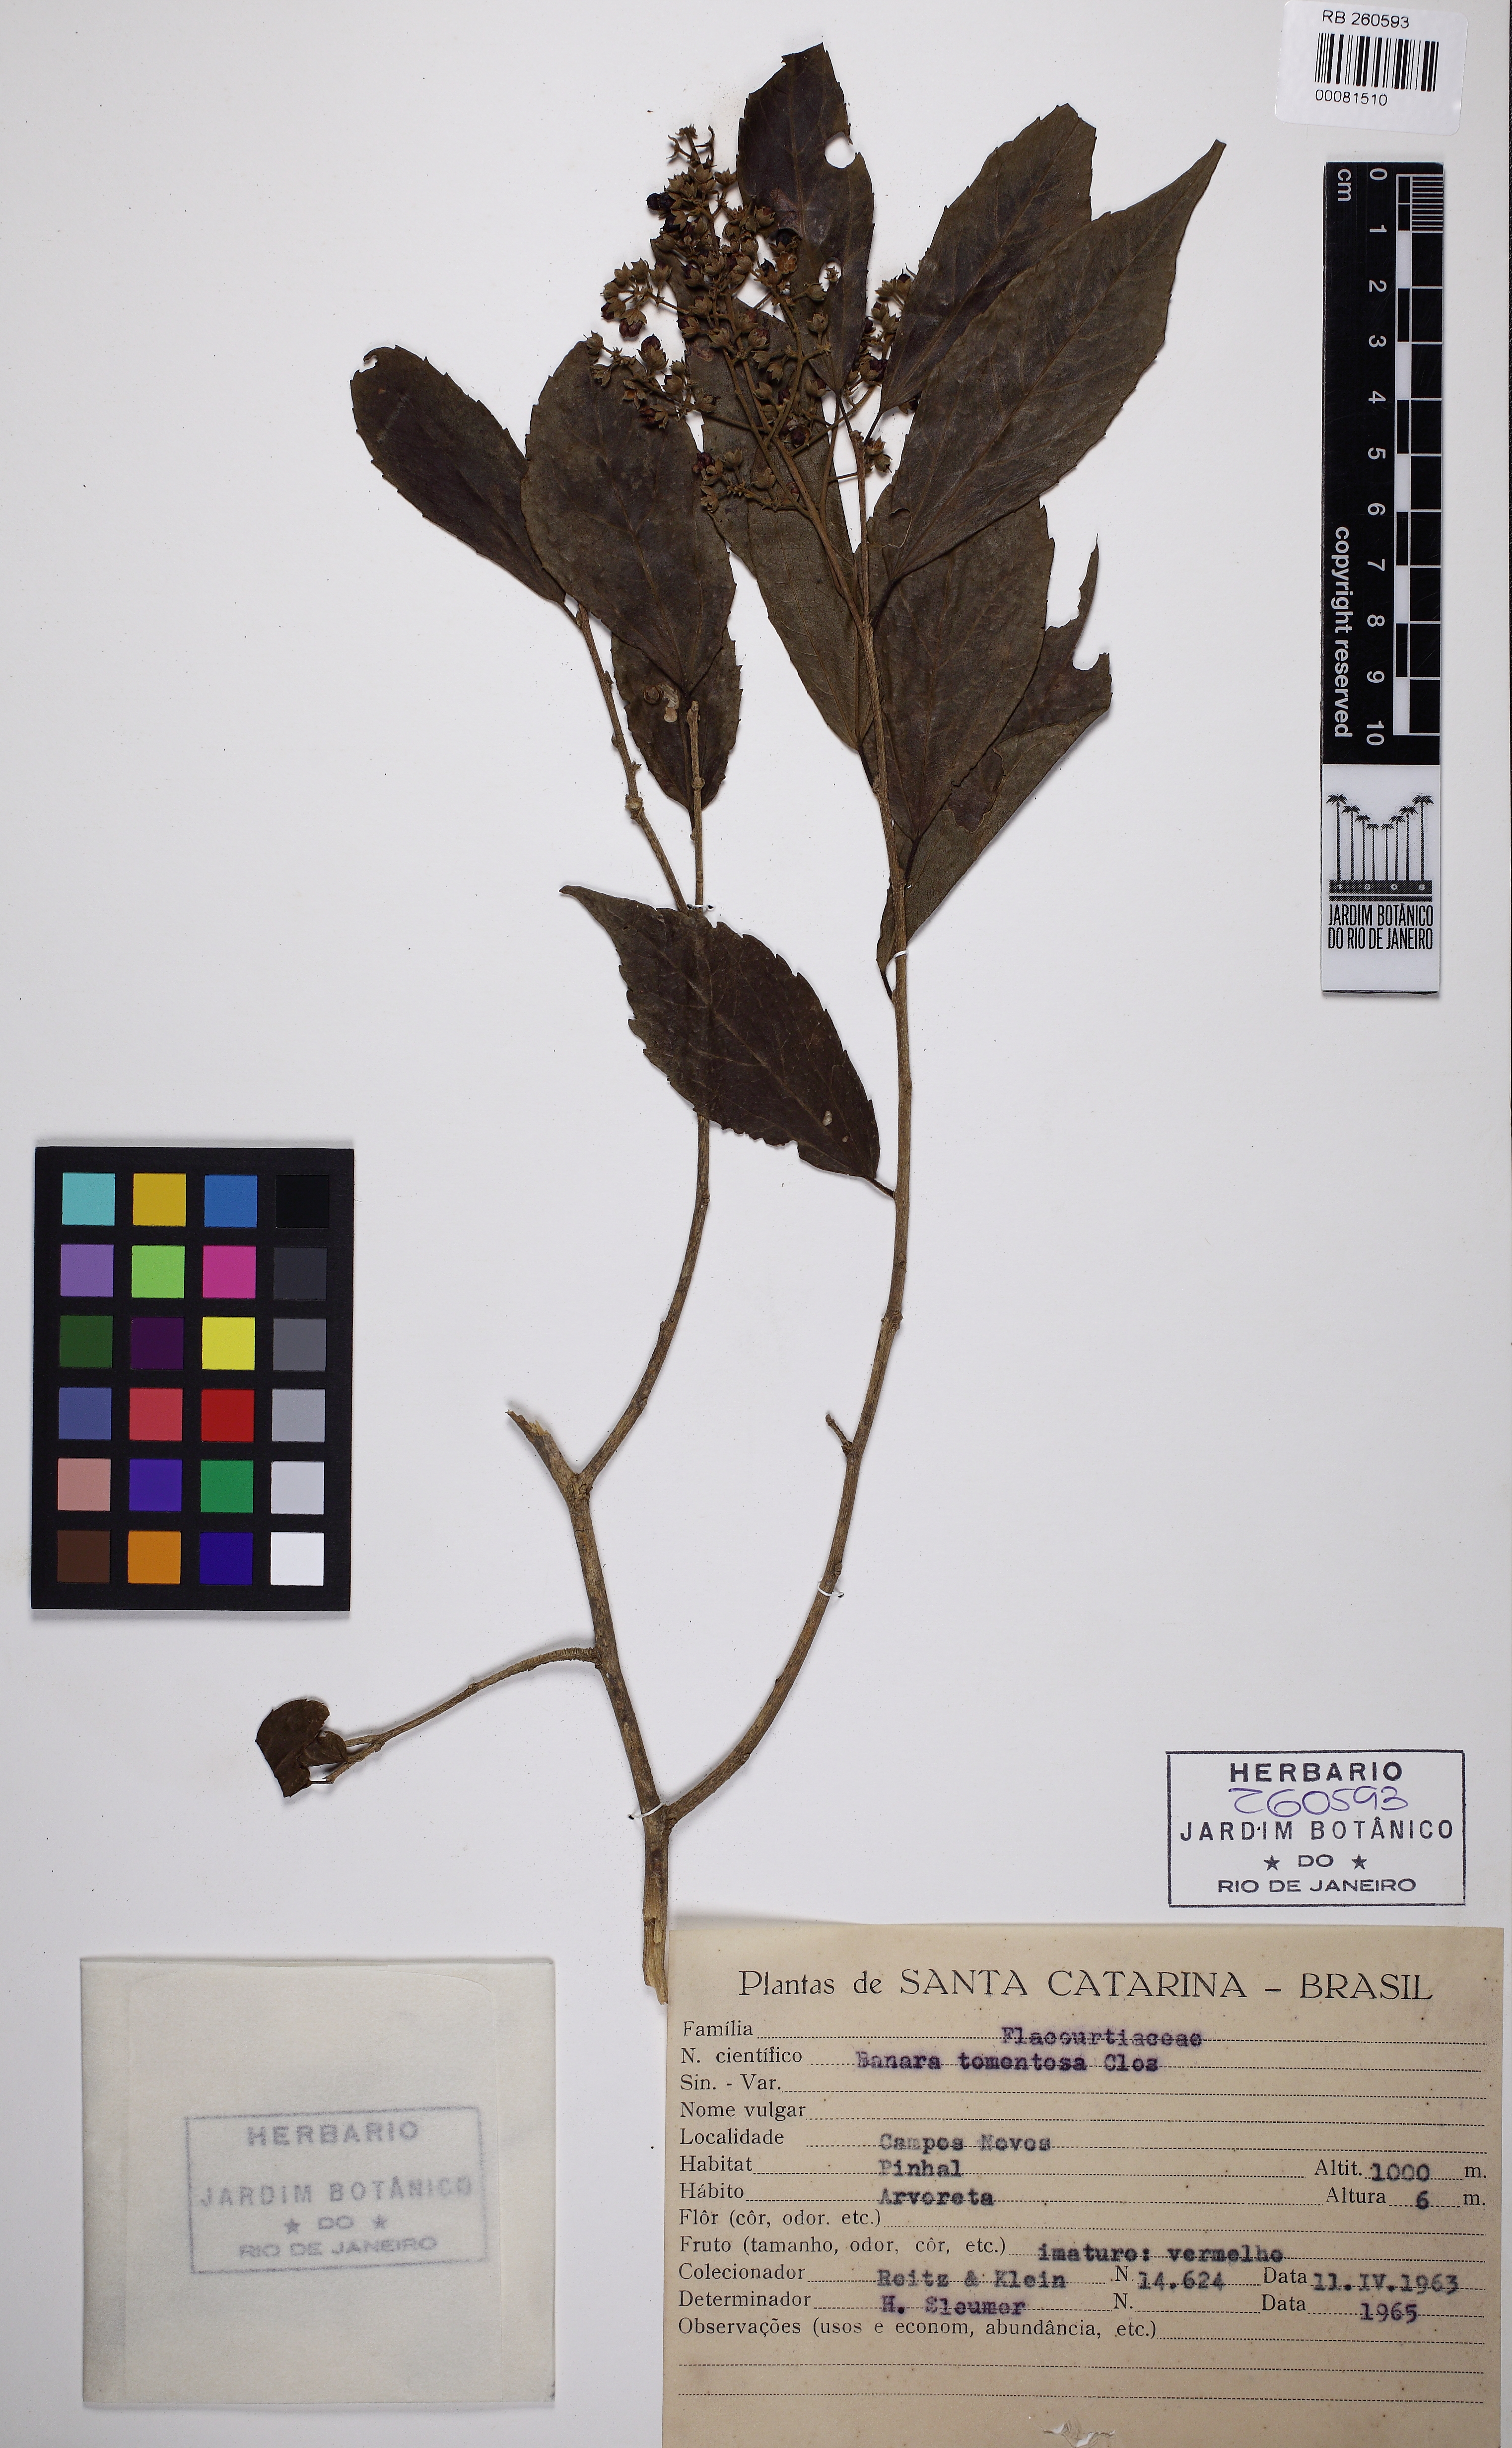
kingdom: Plantae
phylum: Tracheophyta
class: Magnoliopsida
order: Malpighiales
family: Salicaceae
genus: Banara
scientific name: Banara tomentosa
